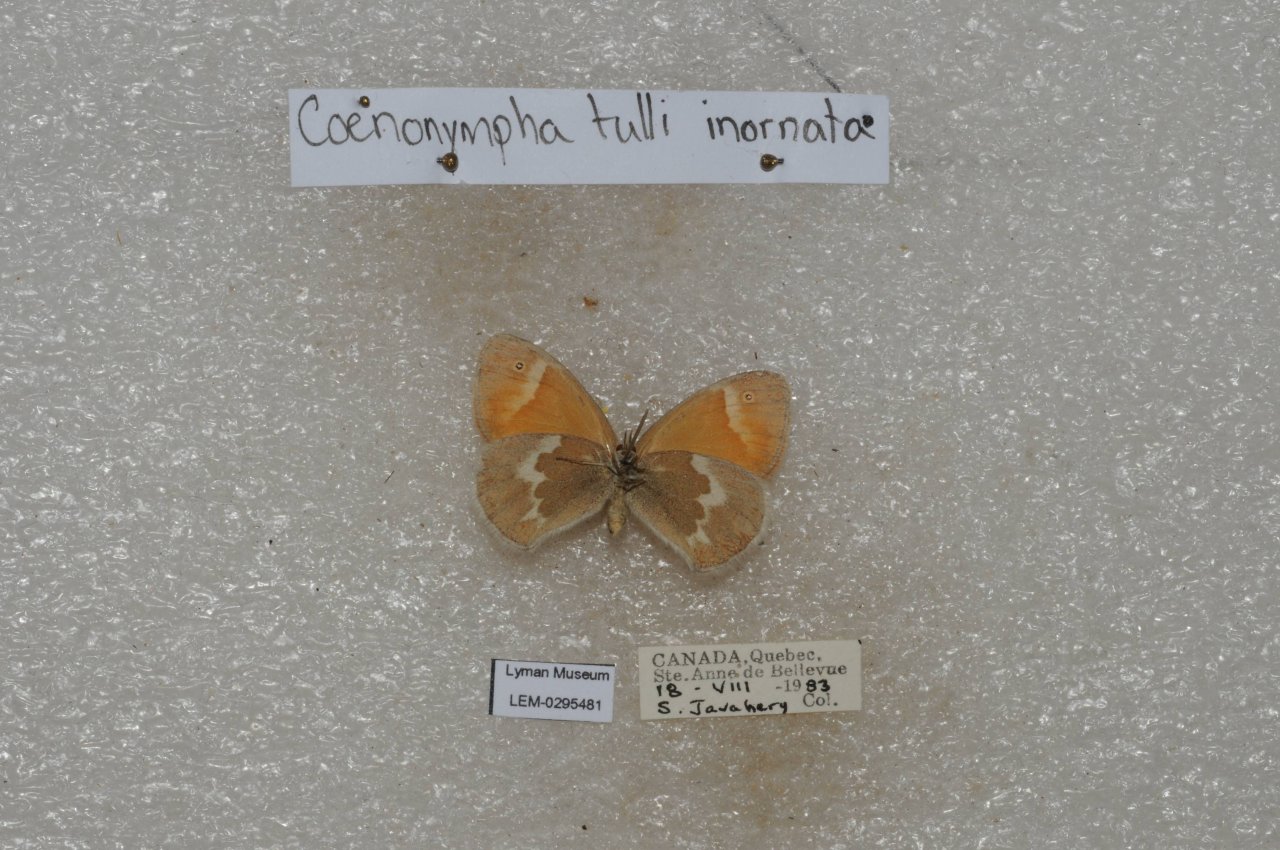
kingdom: Animalia
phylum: Arthropoda
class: Insecta
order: Lepidoptera
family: Nymphalidae
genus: Coenonympha
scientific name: Coenonympha tullia
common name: Large Heath
